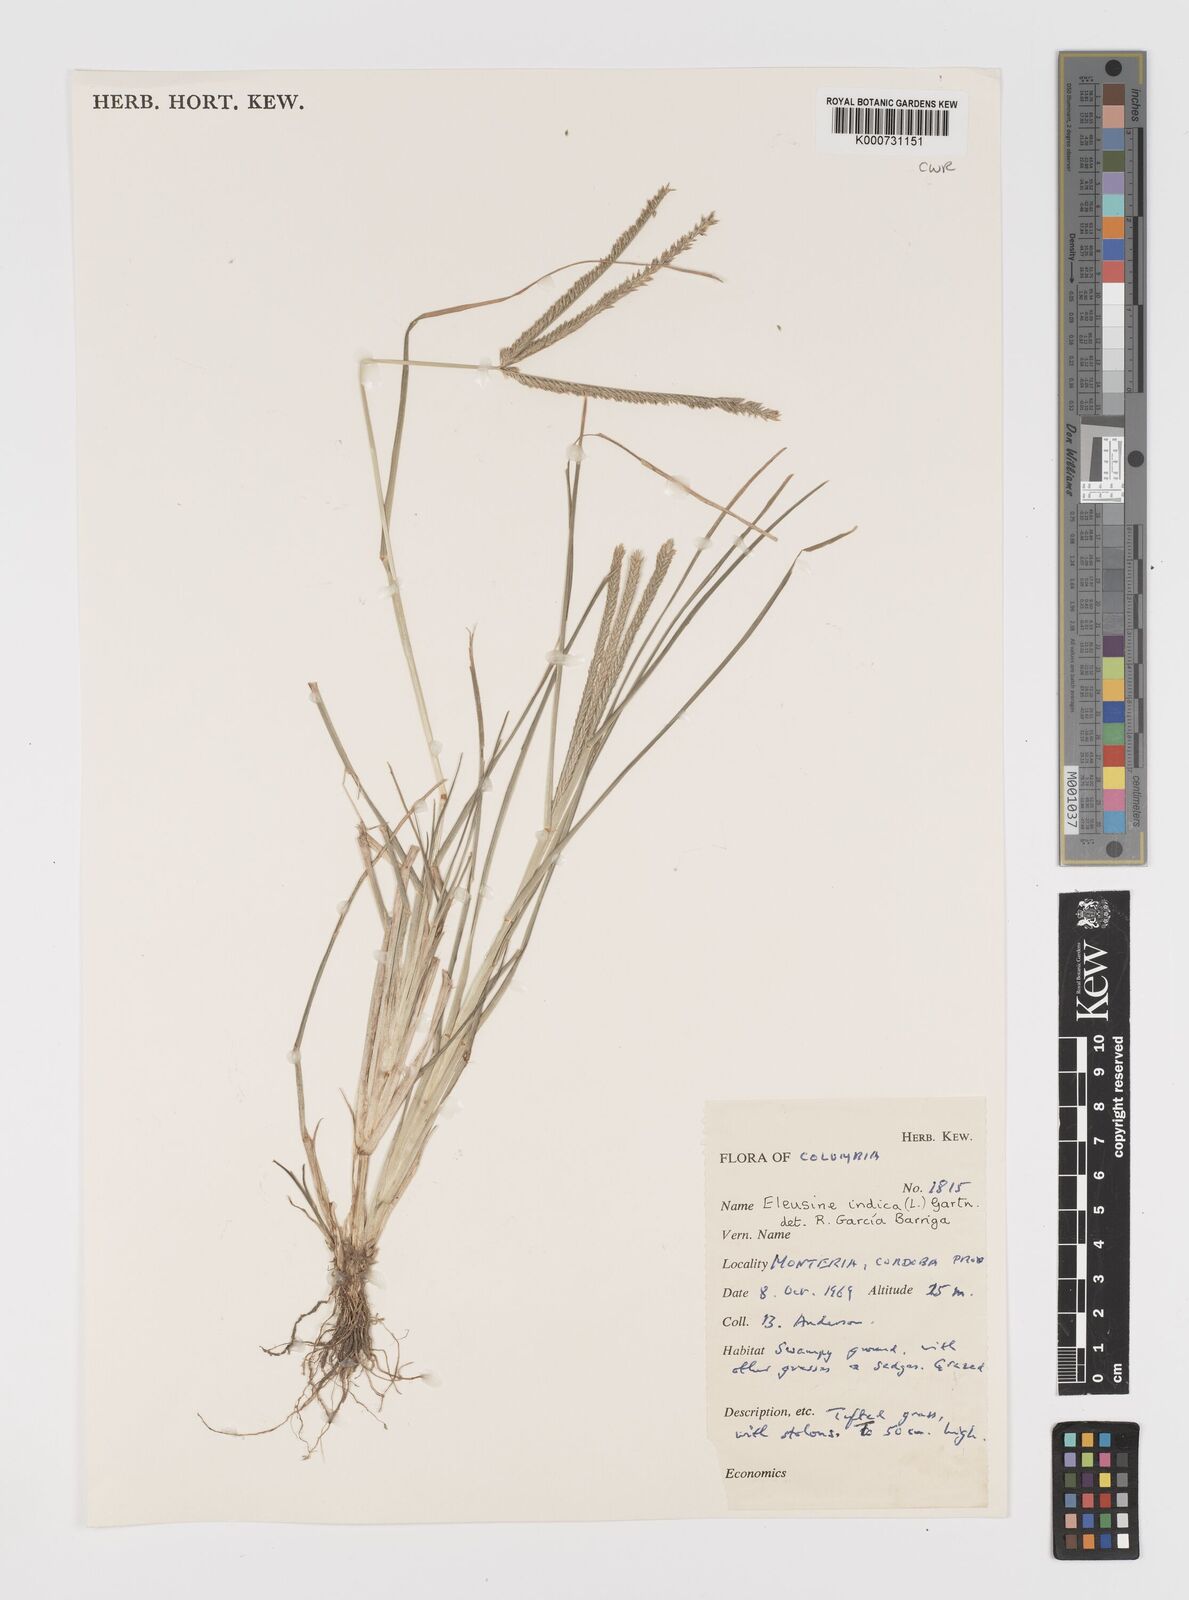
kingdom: Plantae
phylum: Tracheophyta
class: Liliopsida
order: Poales
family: Poaceae
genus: Eleusine
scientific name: Eleusine indica
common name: Yard-grass
